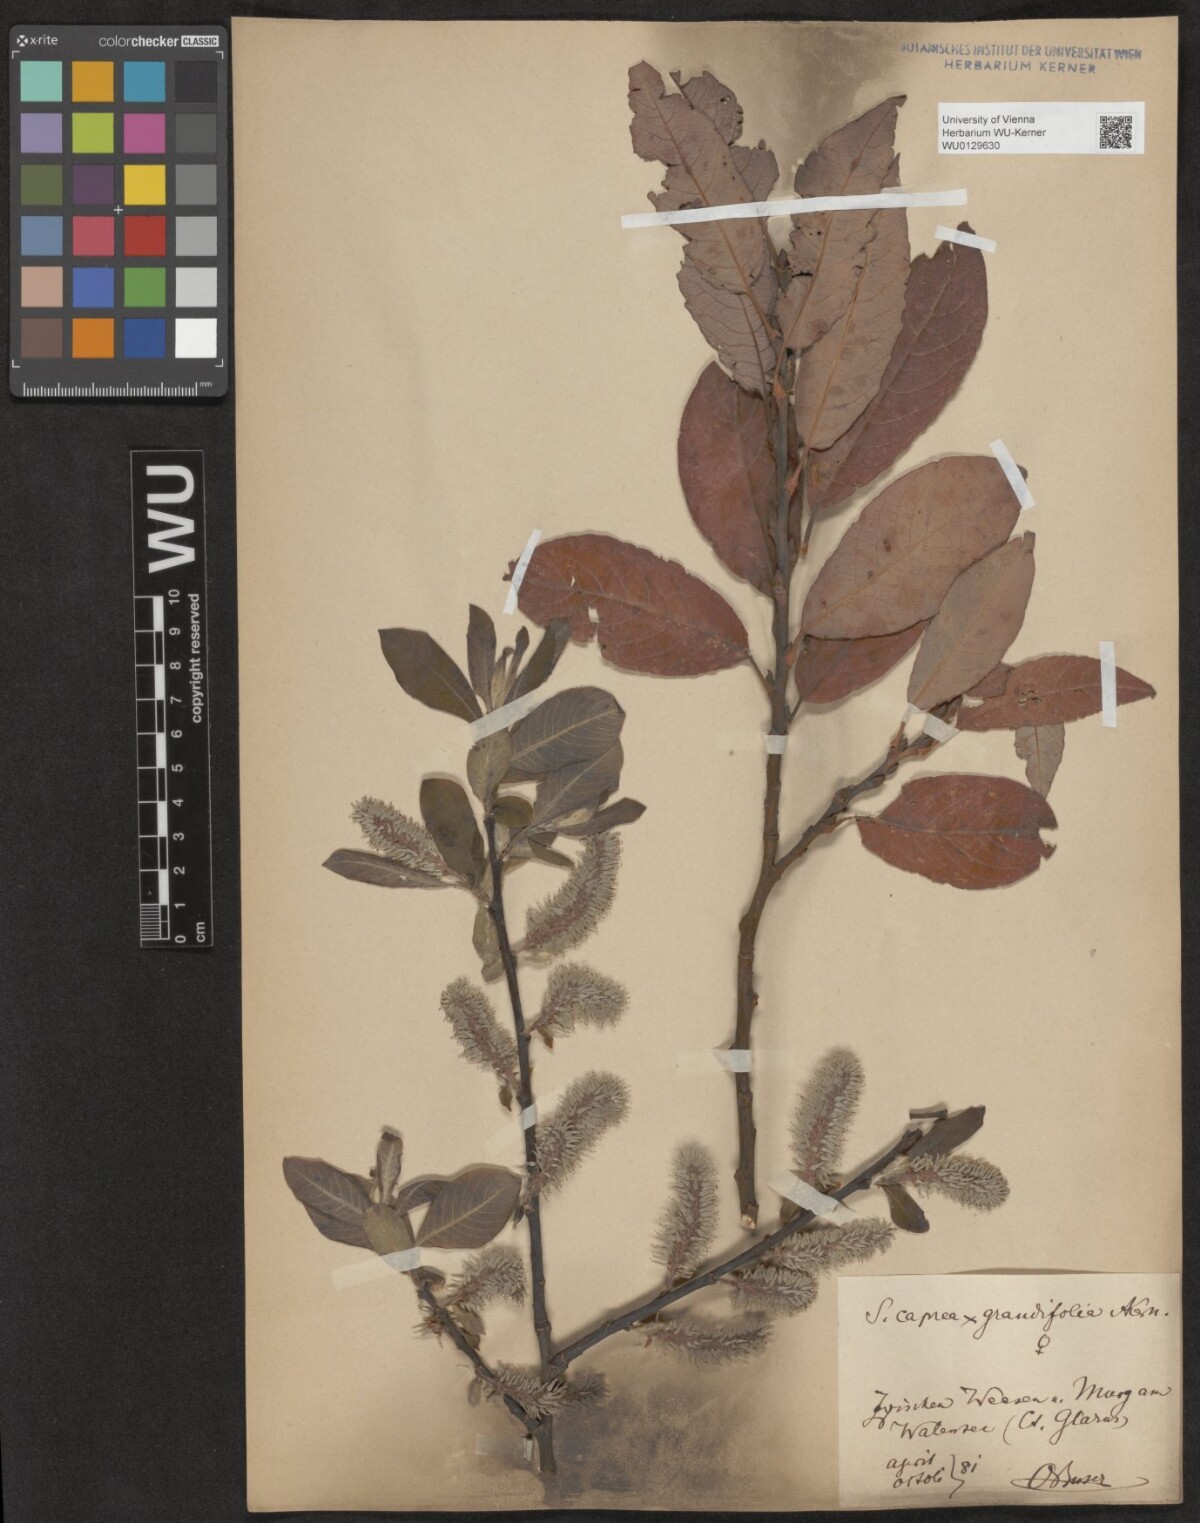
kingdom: Plantae
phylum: Tracheophyta
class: Magnoliopsida
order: Malpighiales
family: Salicaceae
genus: Salix
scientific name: Salix dendroides
